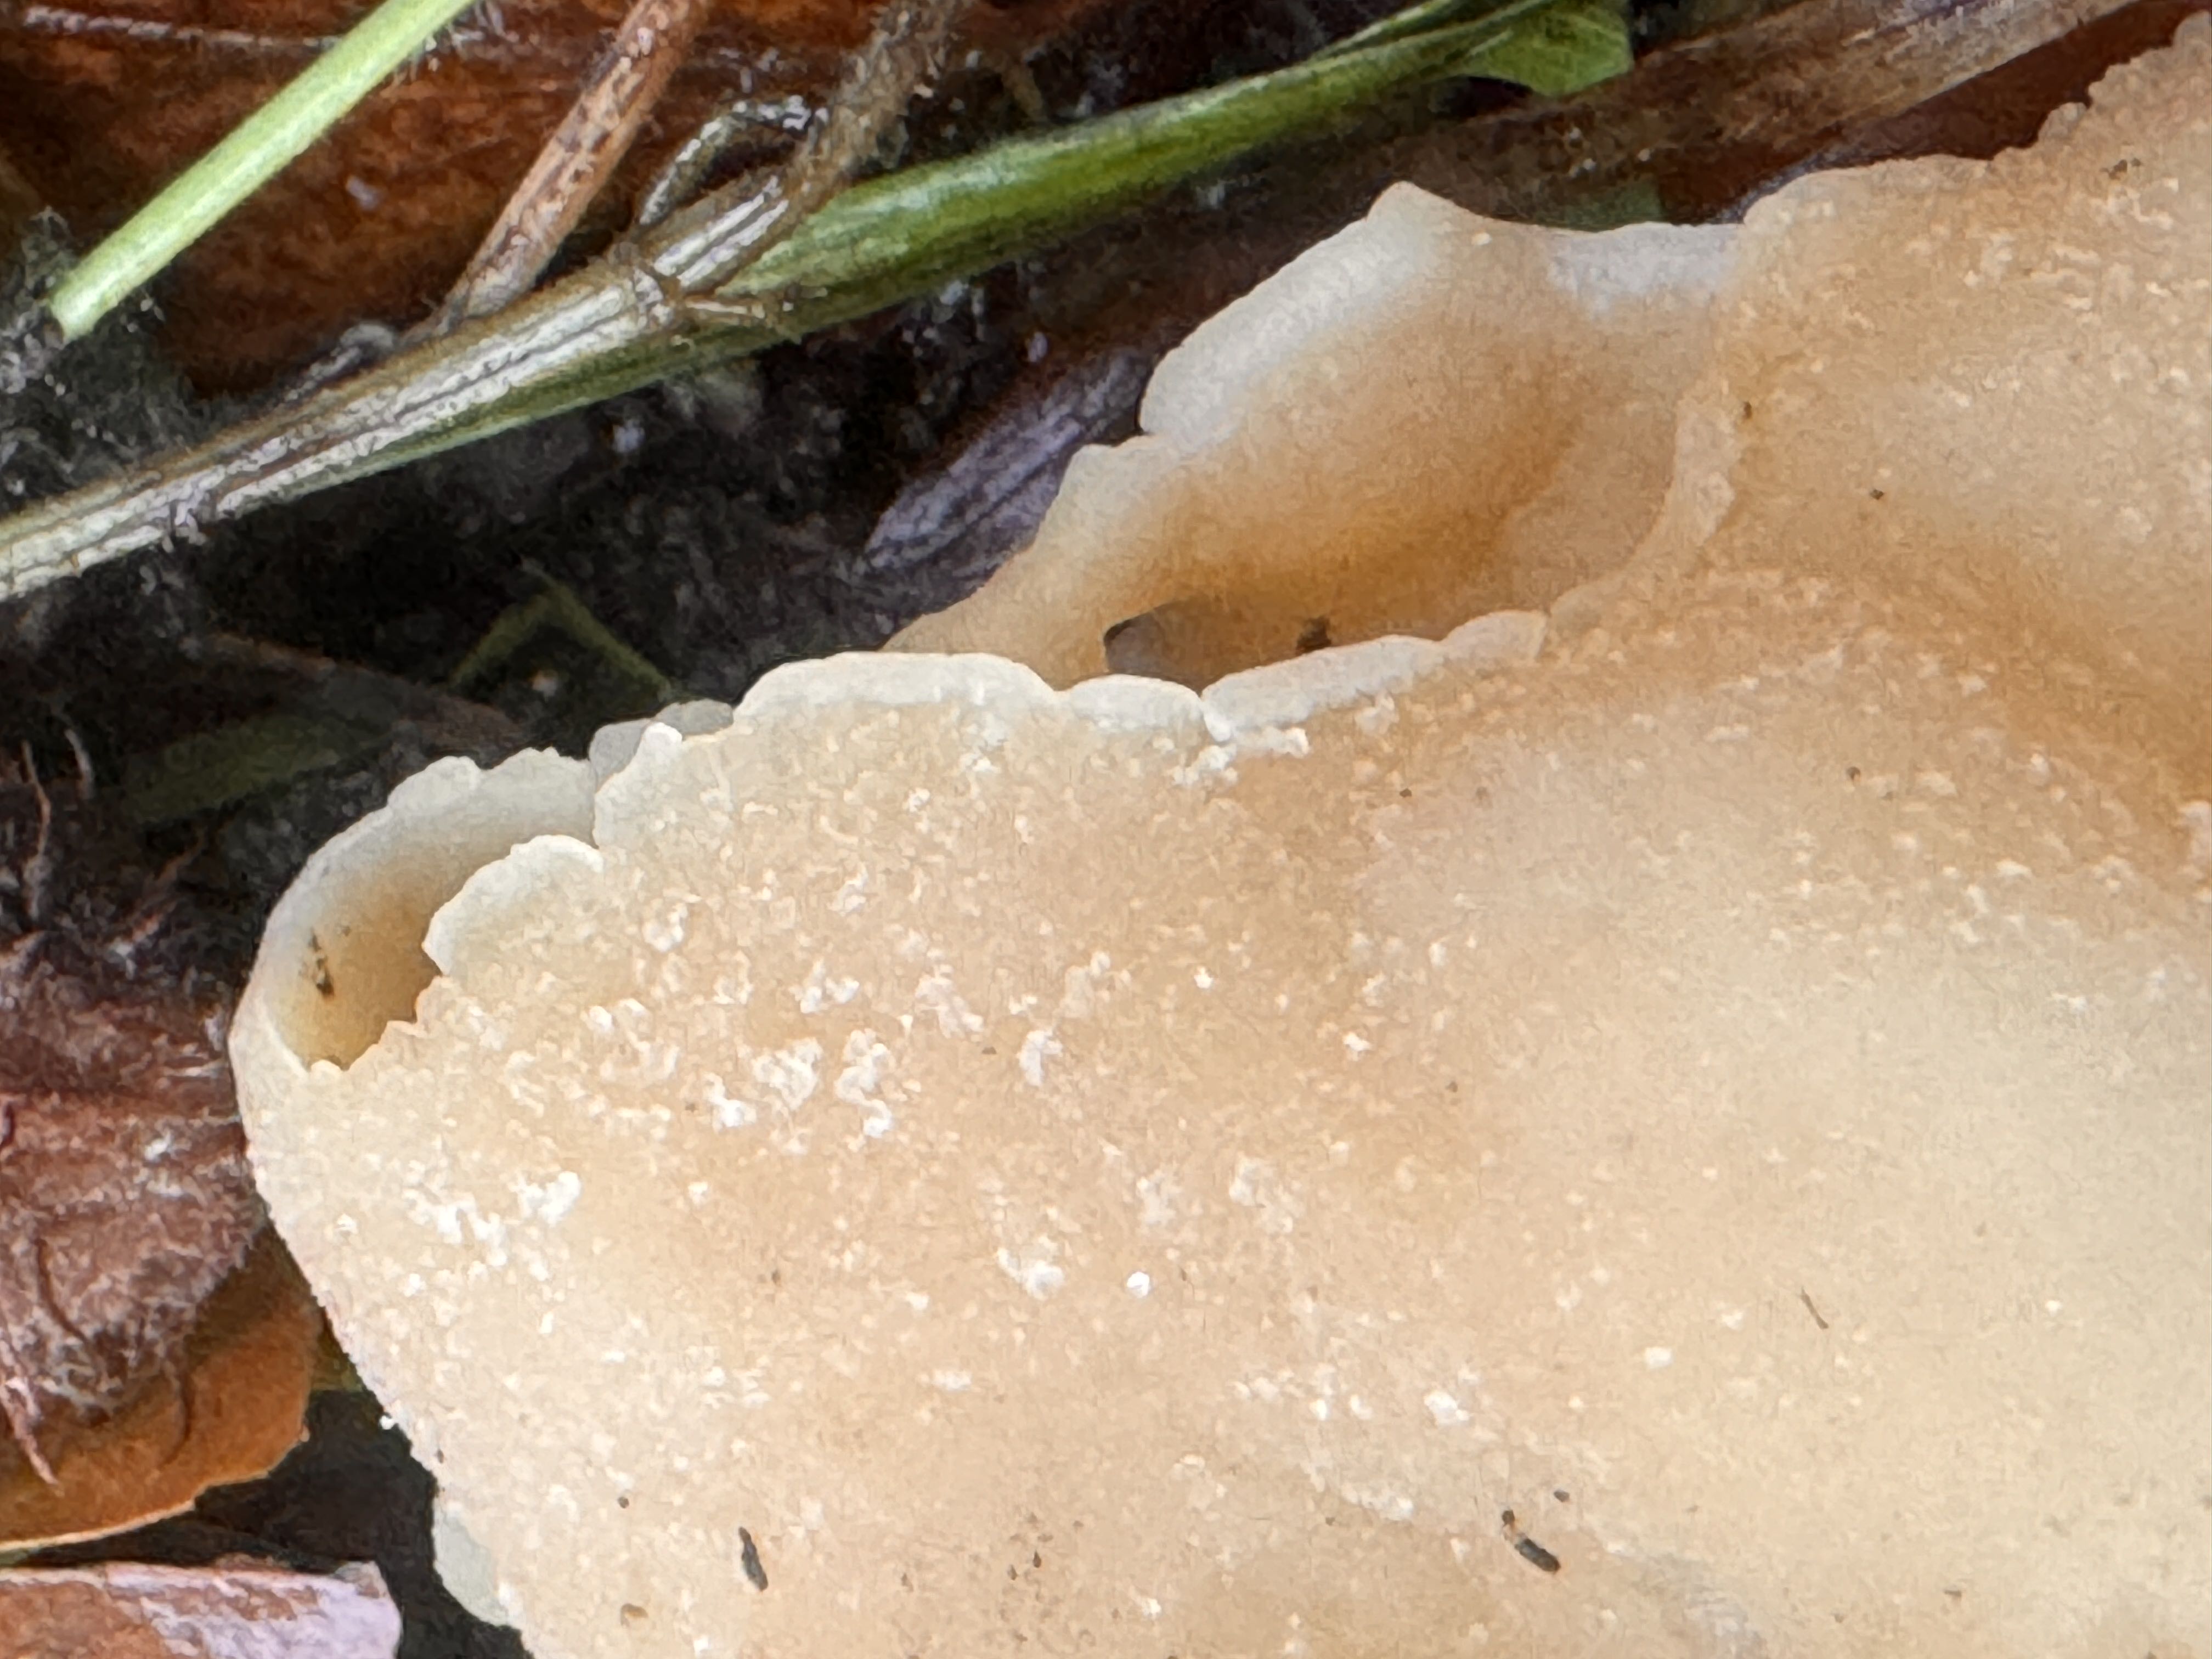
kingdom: Fungi
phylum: Ascomycota
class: Pezizomycetes
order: Pezizales
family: Pezizaceae
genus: Peziza
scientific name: Peziza
